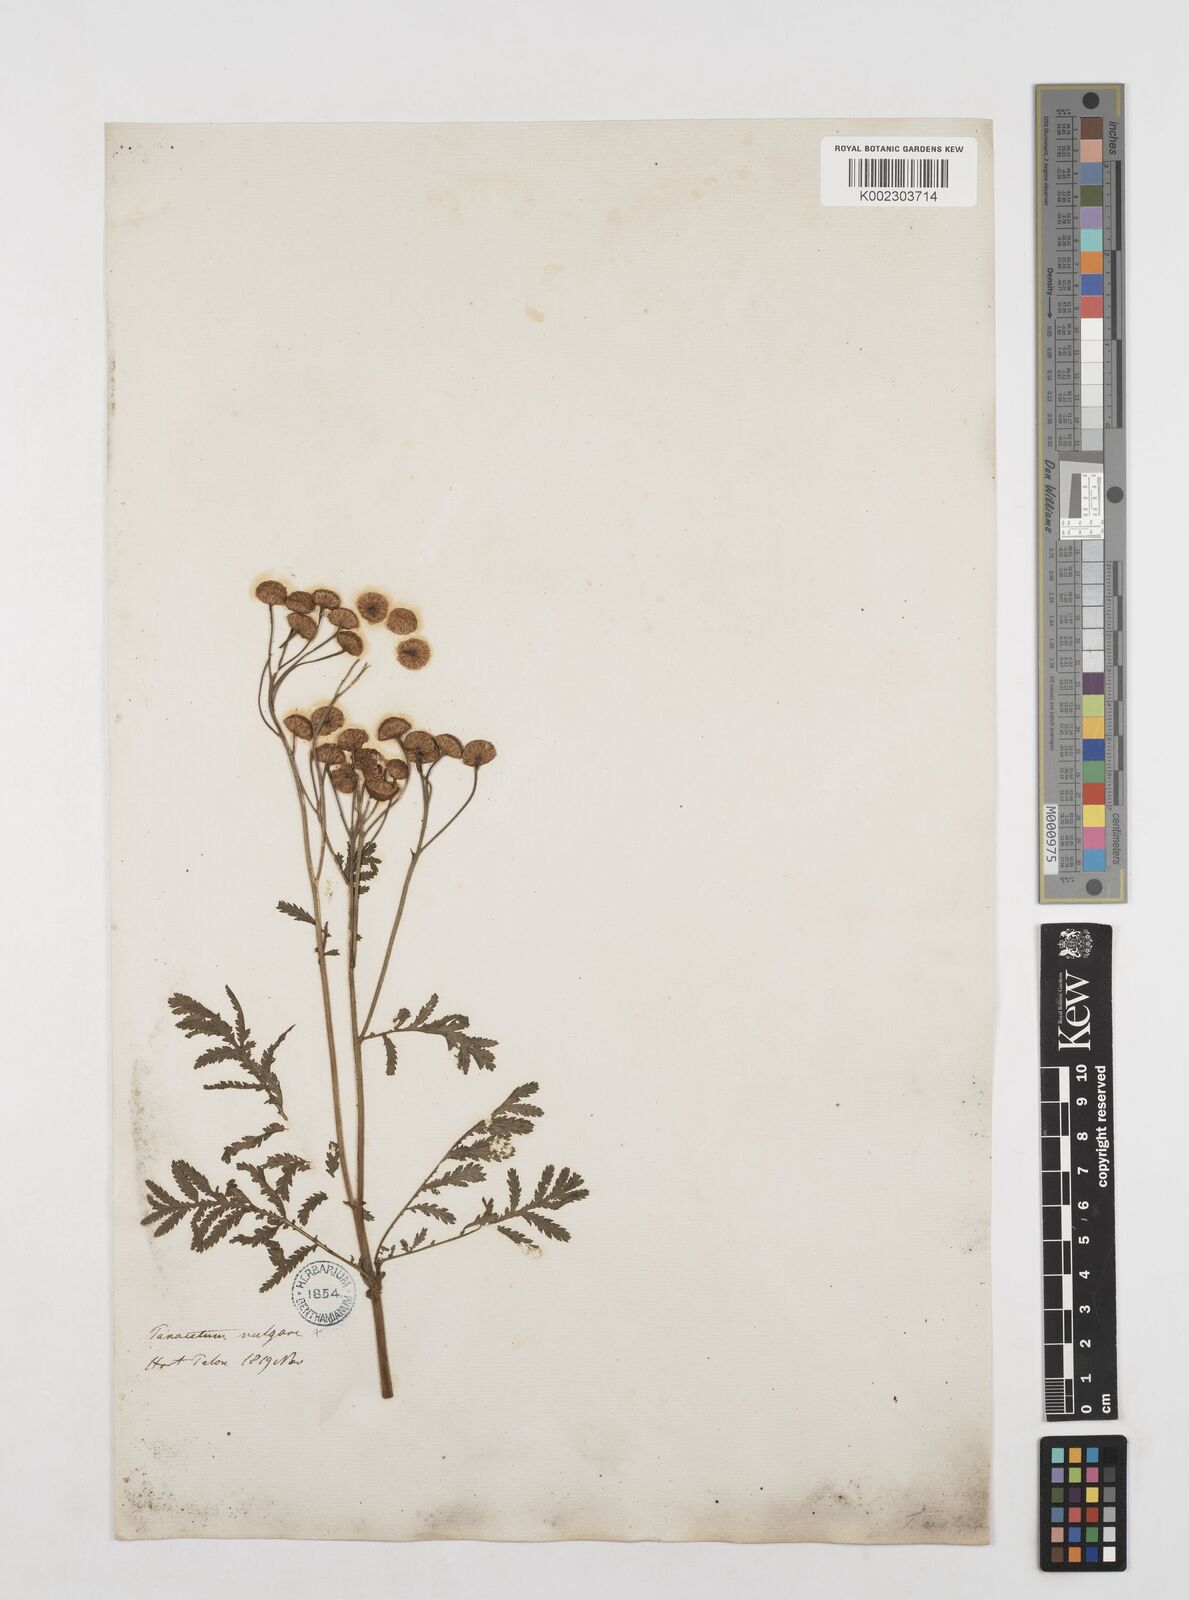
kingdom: Plantae
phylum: Tracheophyta
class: Magnoliopsida
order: Asterales
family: Asteraceae
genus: Tanacetum
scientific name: Tanacetum vulgare
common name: Common tansy
